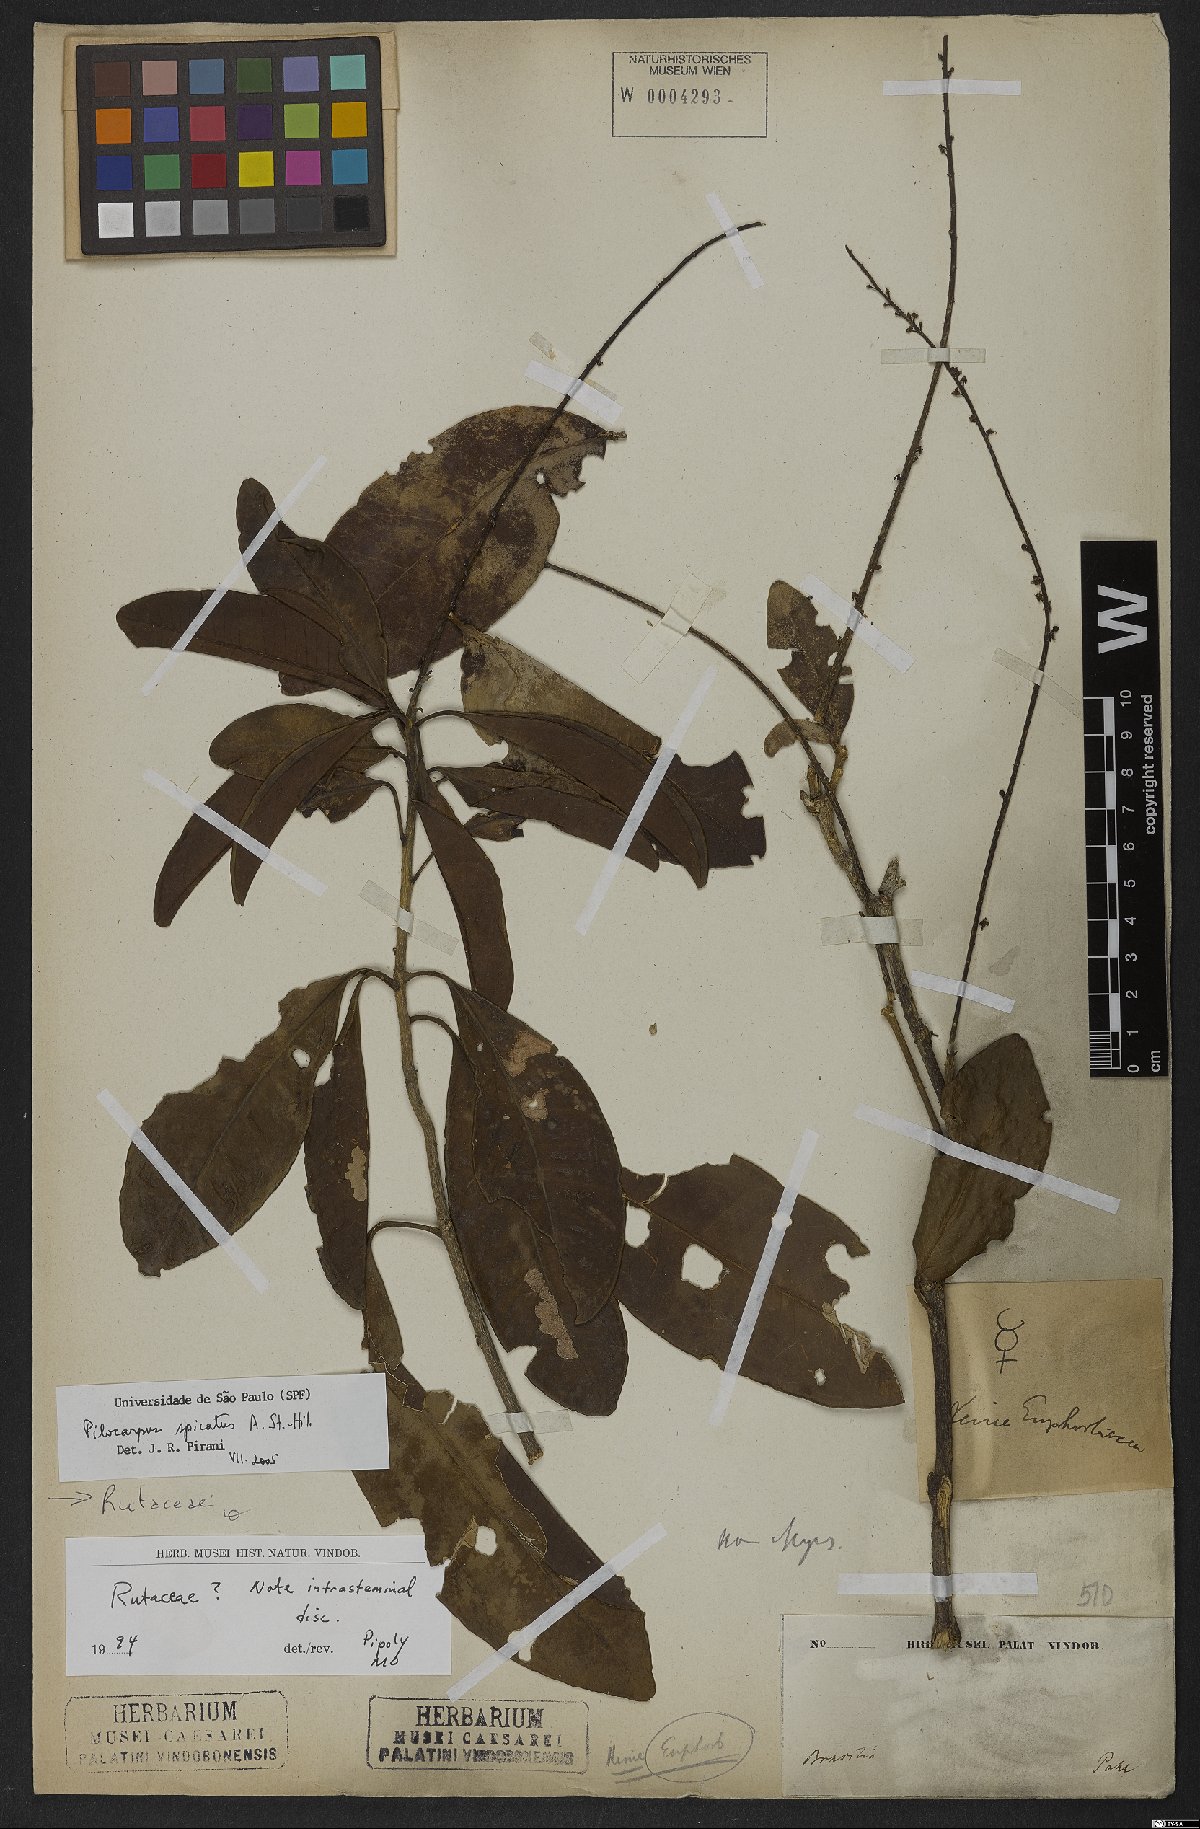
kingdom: Plantae
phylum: Tracheophyta
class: Magnoliopsida
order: Sapindales
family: Rutaceae
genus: Pilocarpus
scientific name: Pilocarpus spicatus
